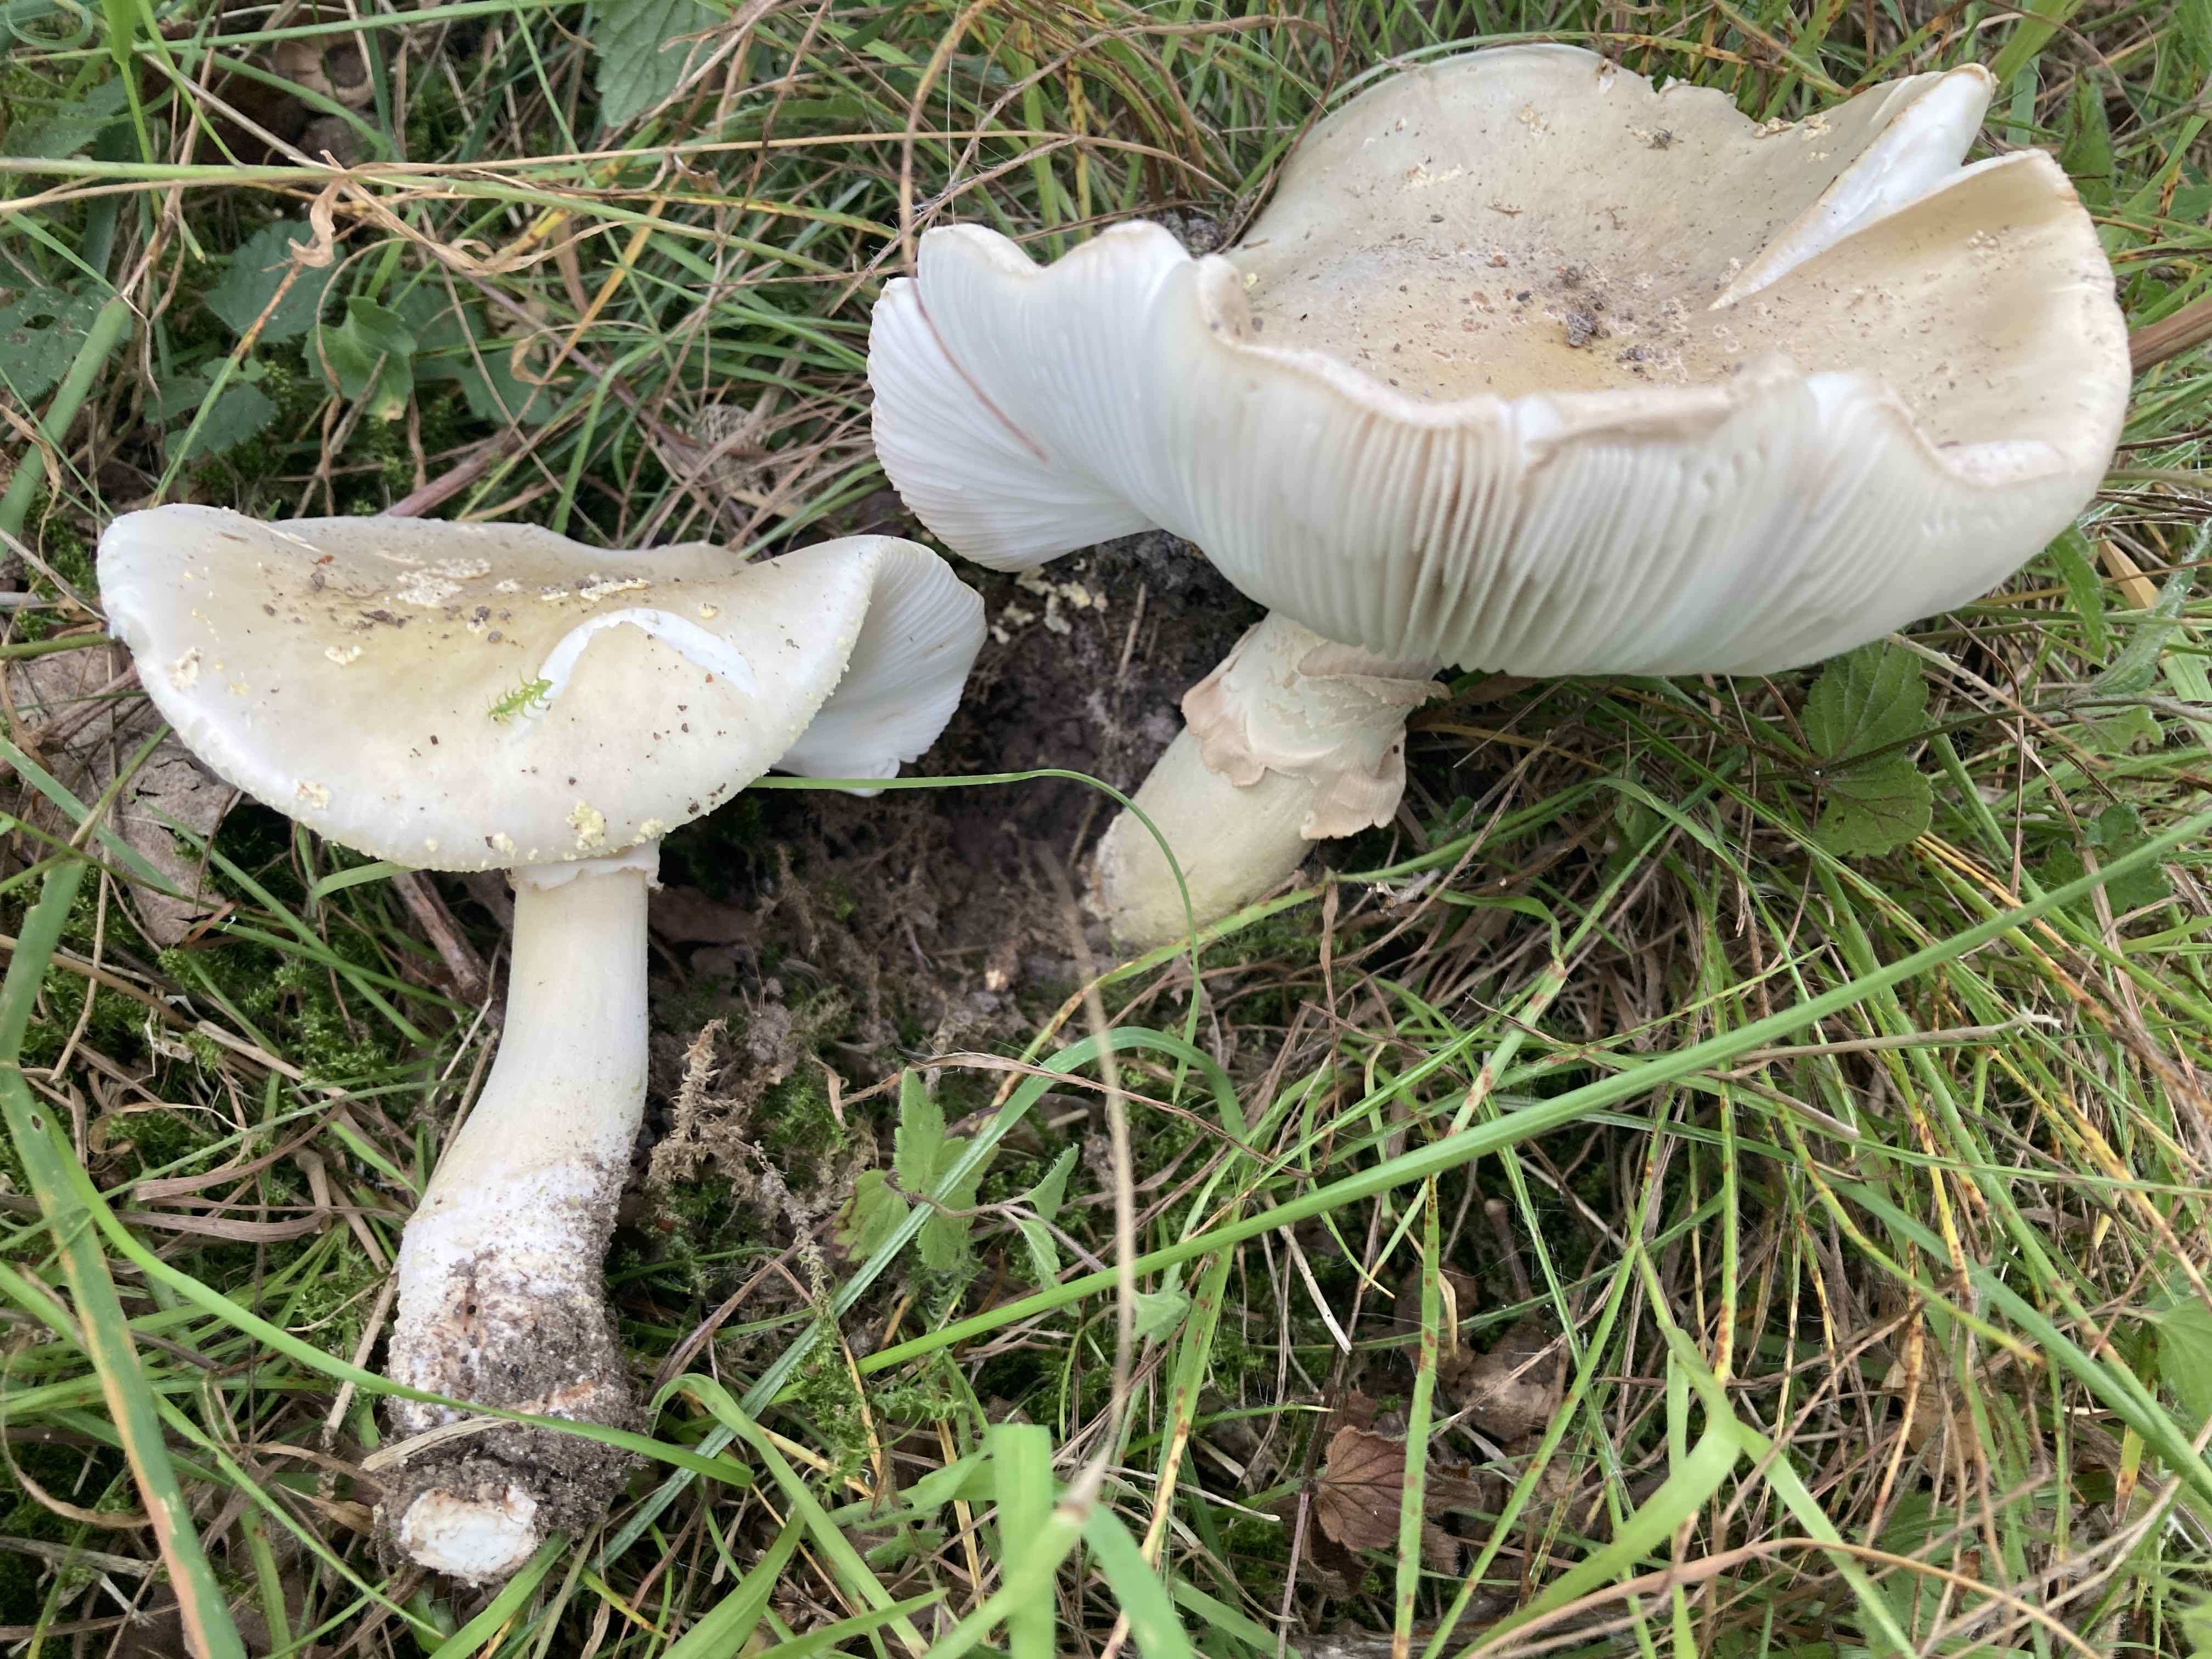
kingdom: Fungi
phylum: Basidiomycota
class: Agaricomycetes
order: Agaricales
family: Amanitaceae
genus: Amanita
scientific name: Amanita franchetii
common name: gulrandet fluesvamp
